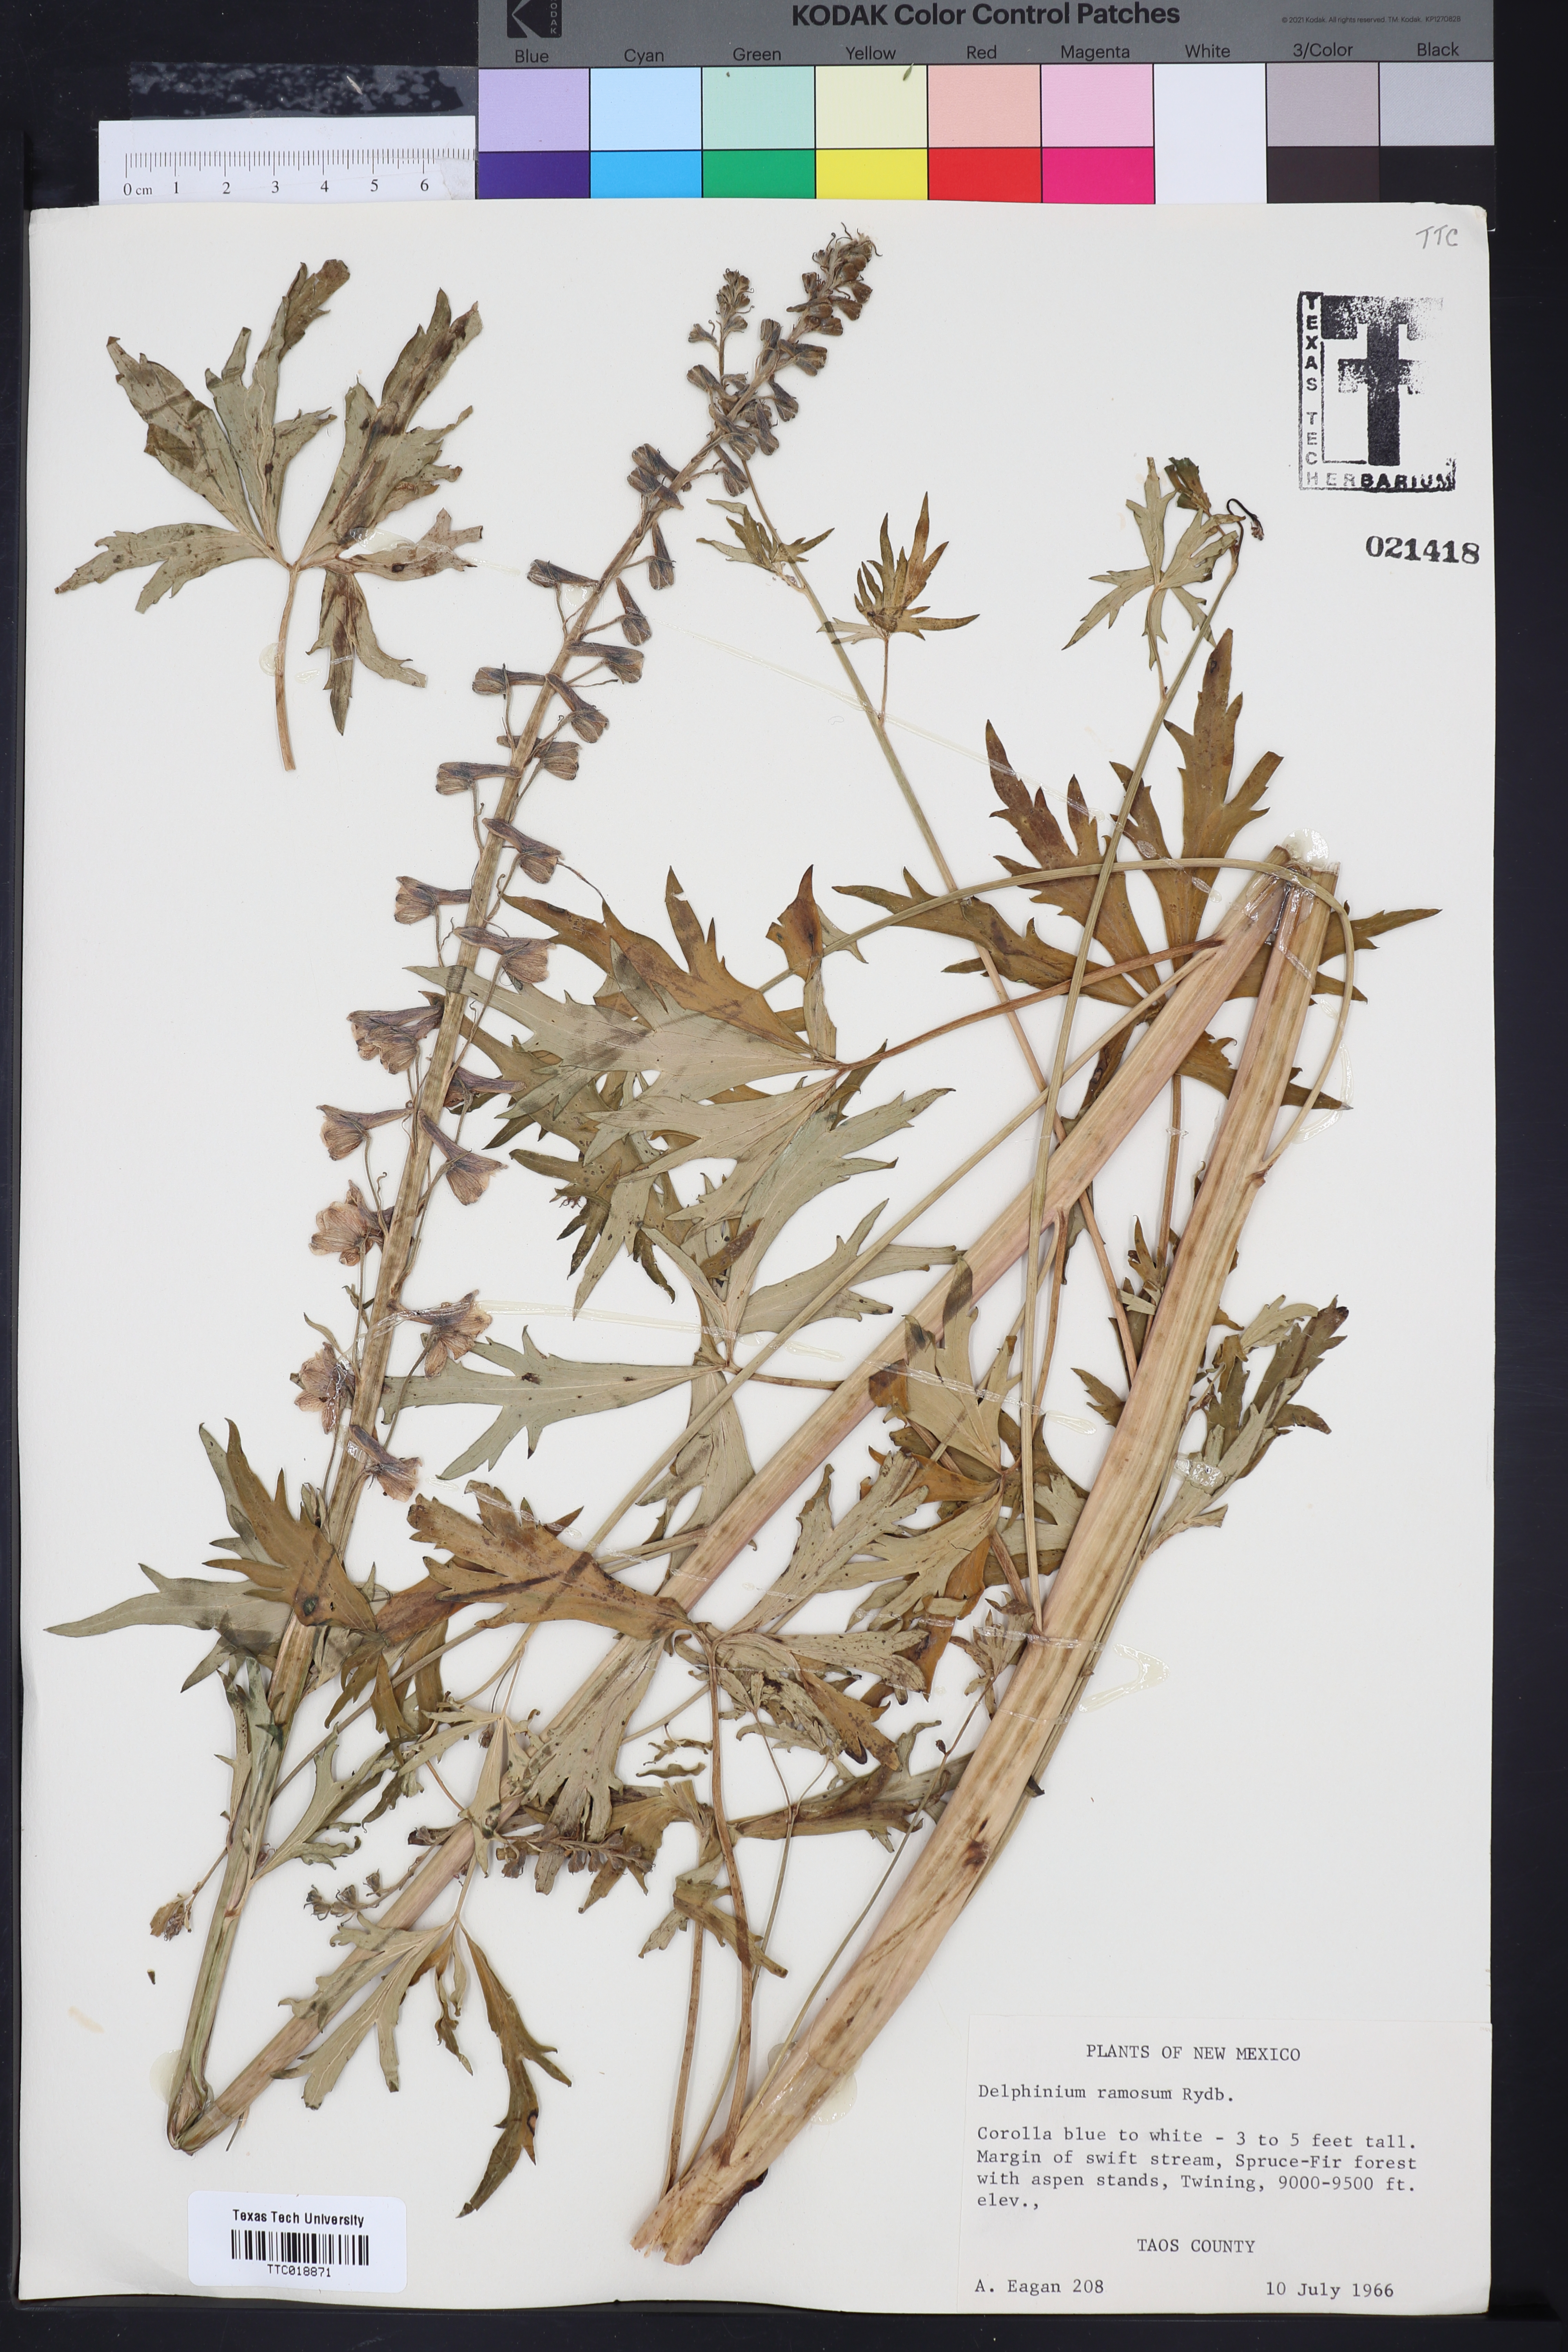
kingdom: Plantae
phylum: Tracheophyta
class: Magnoliopsida
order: Ranunculales
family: Ranunculaceae
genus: Delphinium
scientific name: Delphinium ramosum
